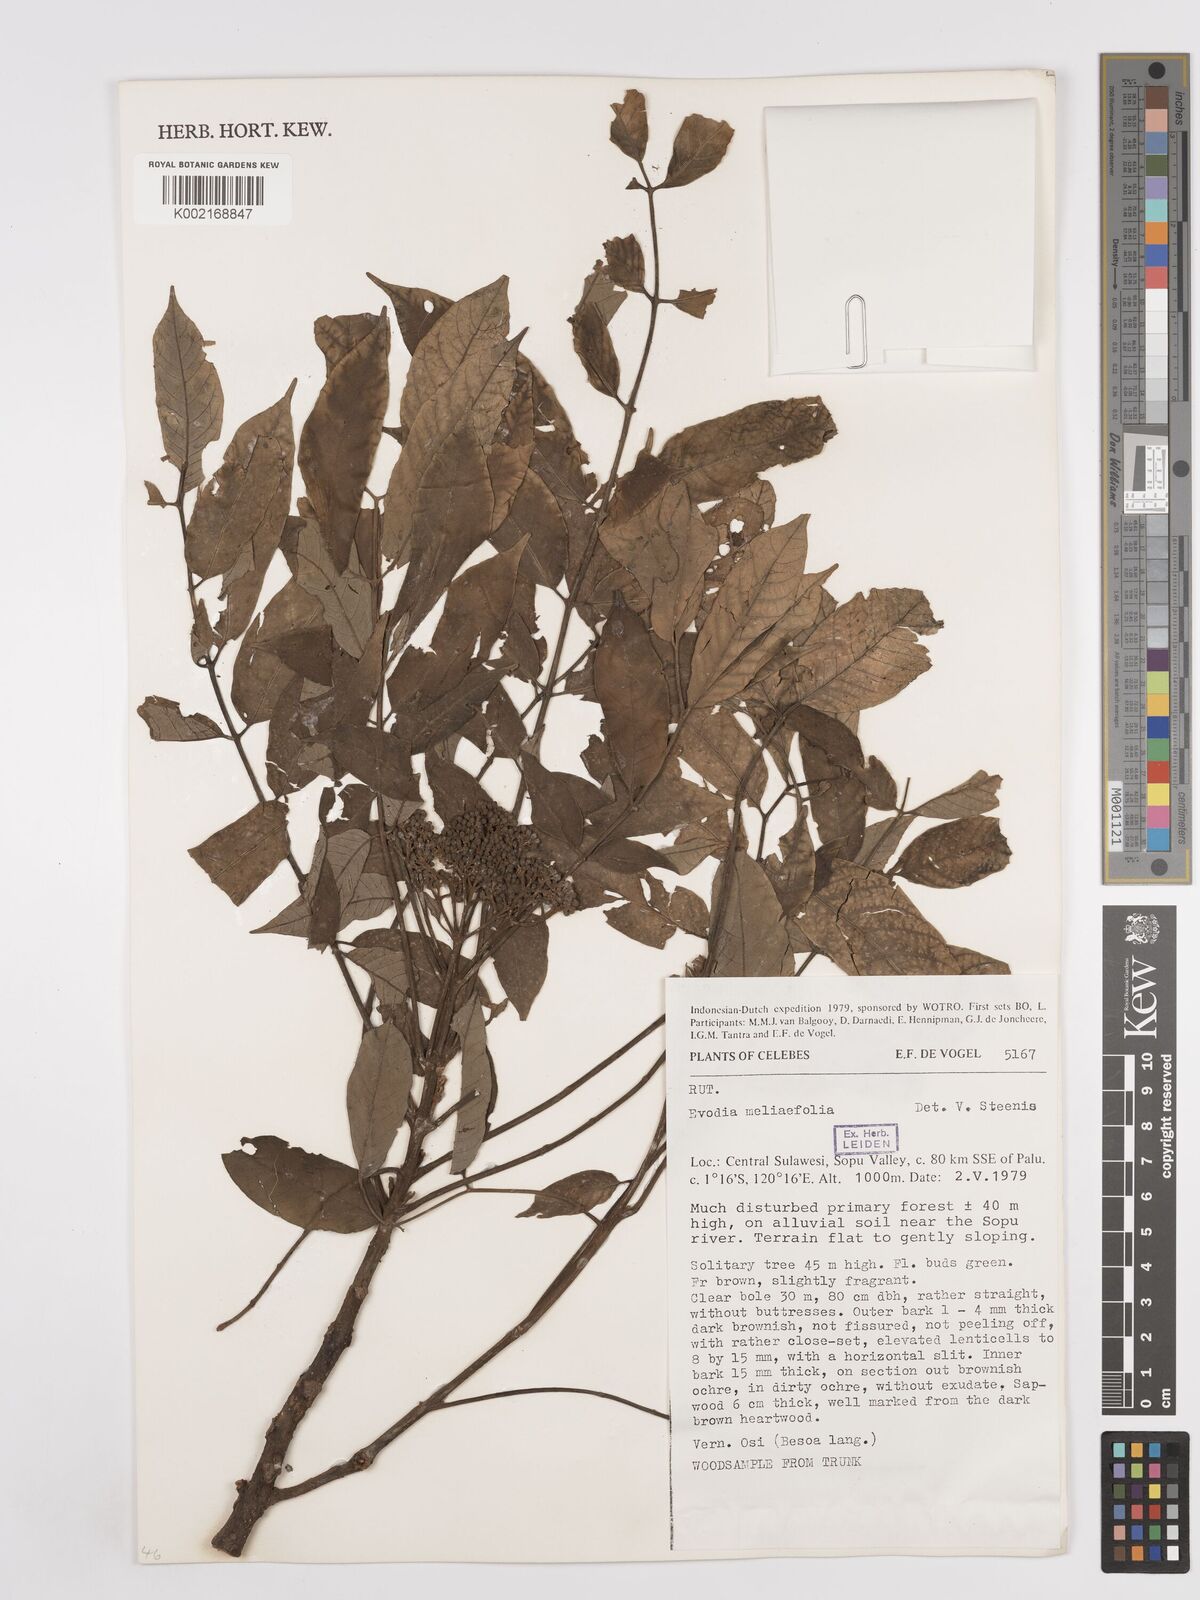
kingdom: Plantae
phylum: Tracheophyta
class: Magnoliopsida
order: Sapindales
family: Rutaceae
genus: Tetradium
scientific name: Tetradium glabrifolium
